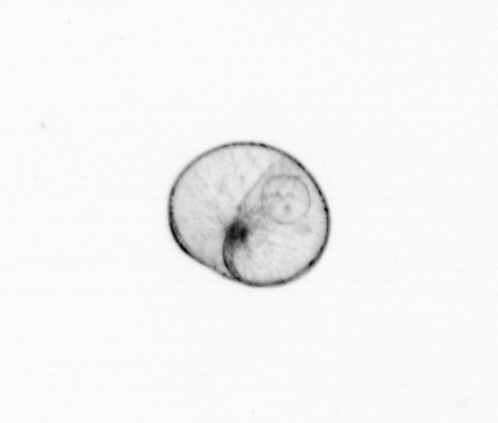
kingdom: Chromista
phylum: Myzozoa
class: Dinophyceae
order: Noctilucales
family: Noctilucaceae
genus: Noctiluca
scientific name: Noctiluca scintillans
